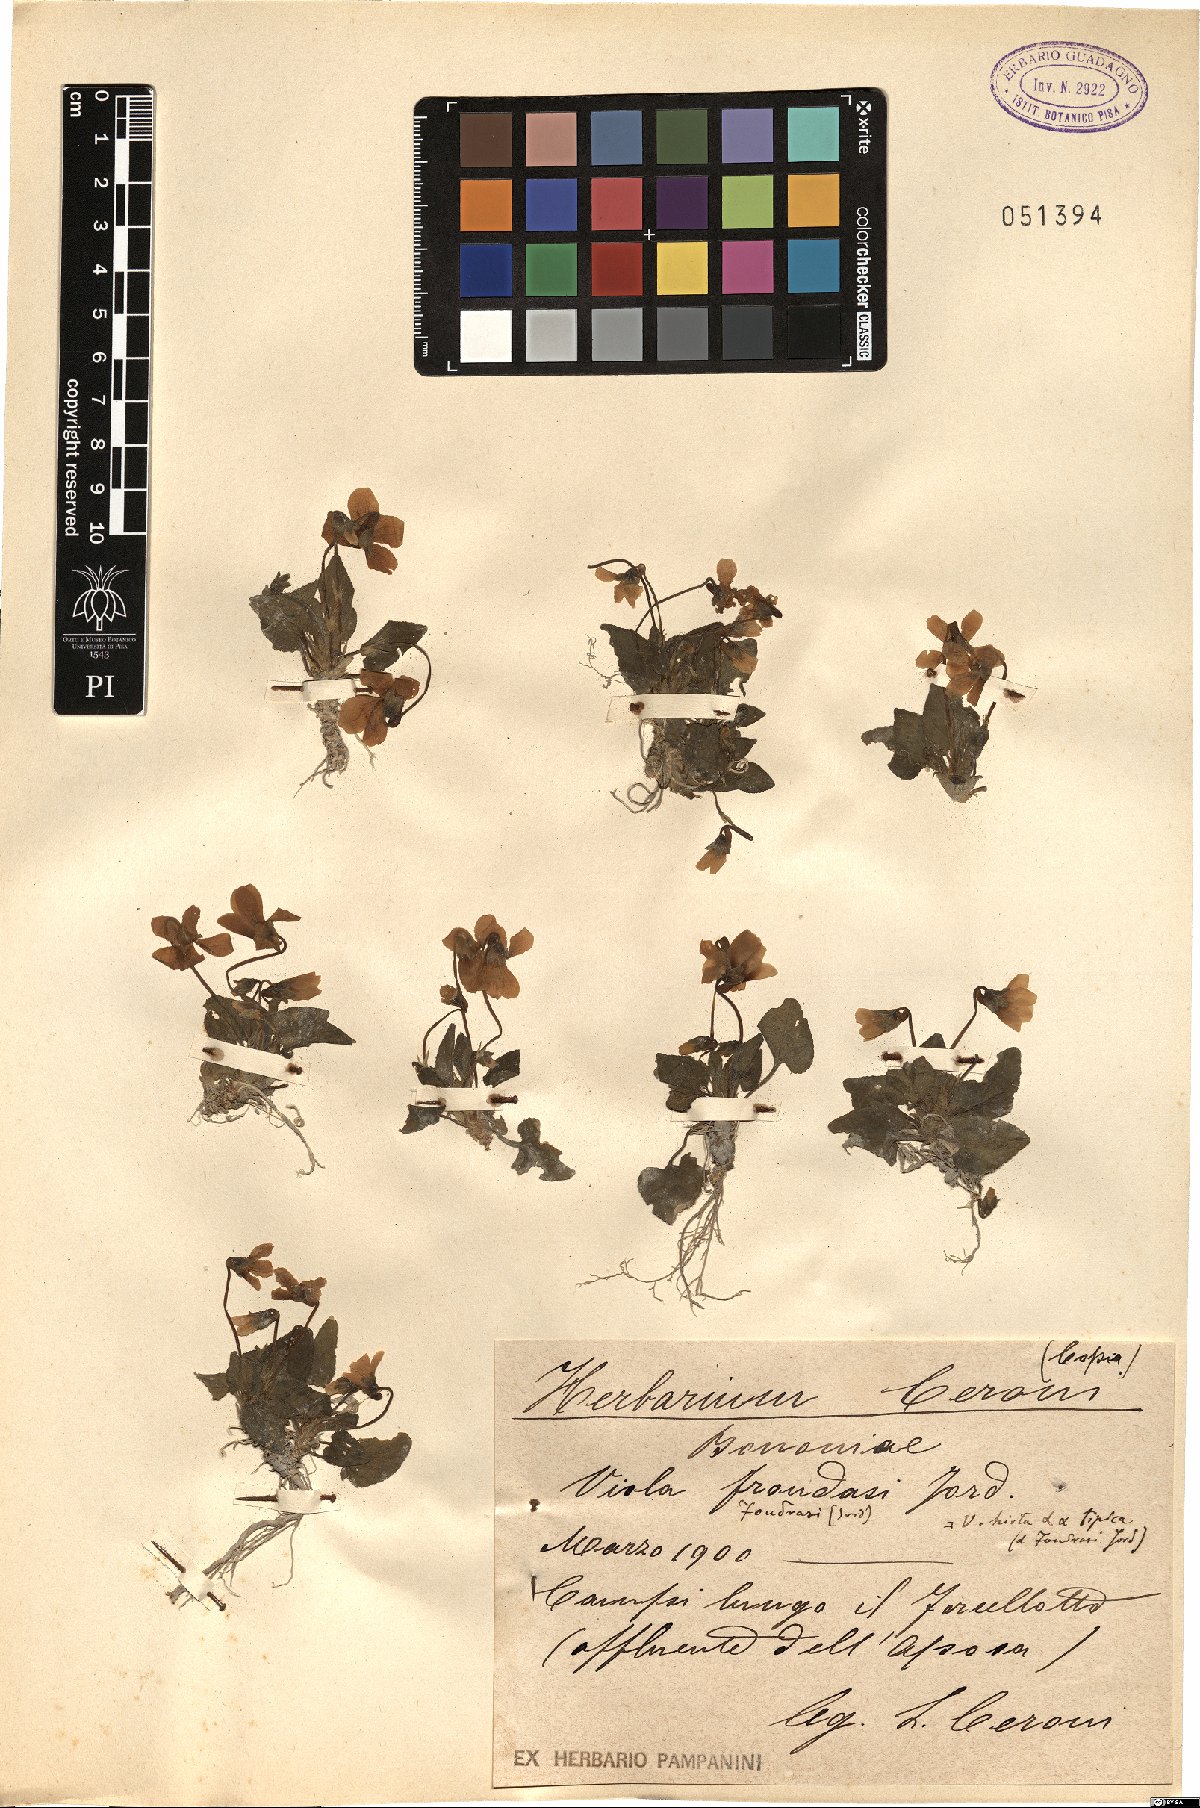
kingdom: Plantae
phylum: Tracheophyta
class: Magnoliopsida
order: Malpighiales
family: Violaceae
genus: Viola
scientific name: Viola hirta
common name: Hairy violet
